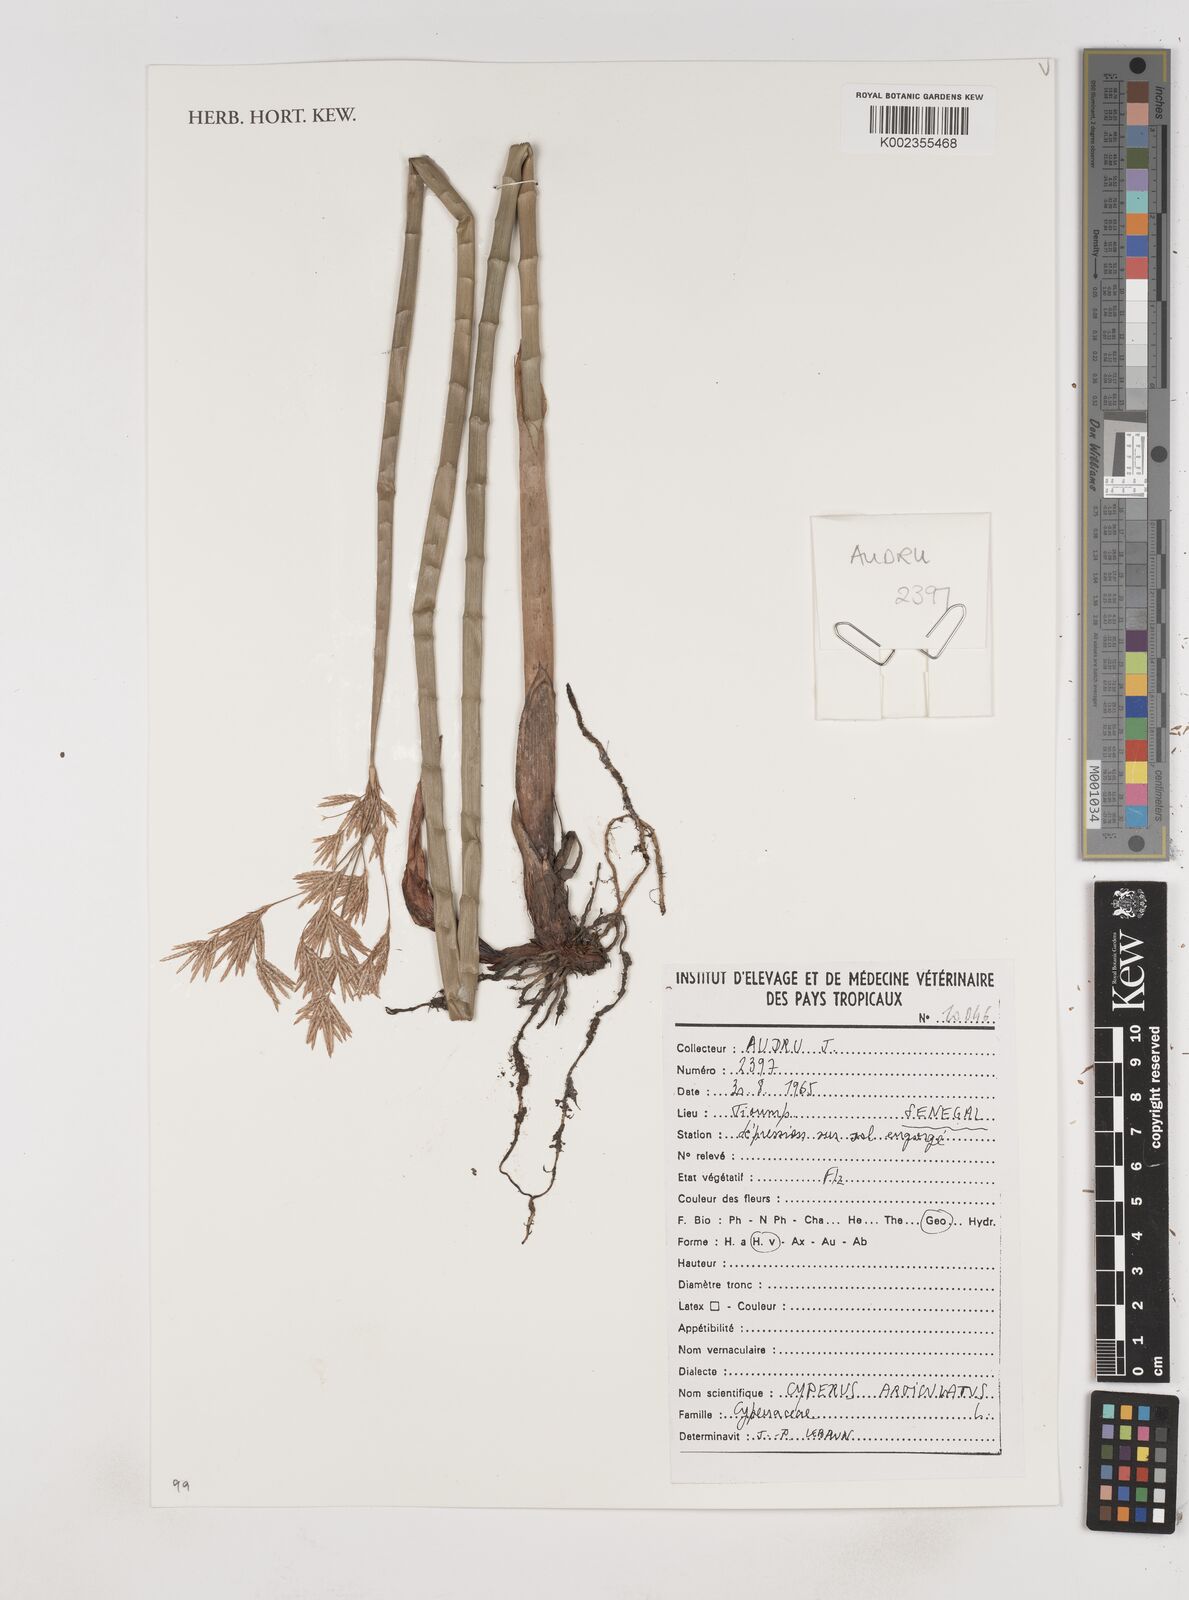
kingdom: Plantae
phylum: Tracheophyta
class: Liliopsida
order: Poales
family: Cyperaceae
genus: Cyperus
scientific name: Cyperus articulatus
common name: Jointed flatsedge
